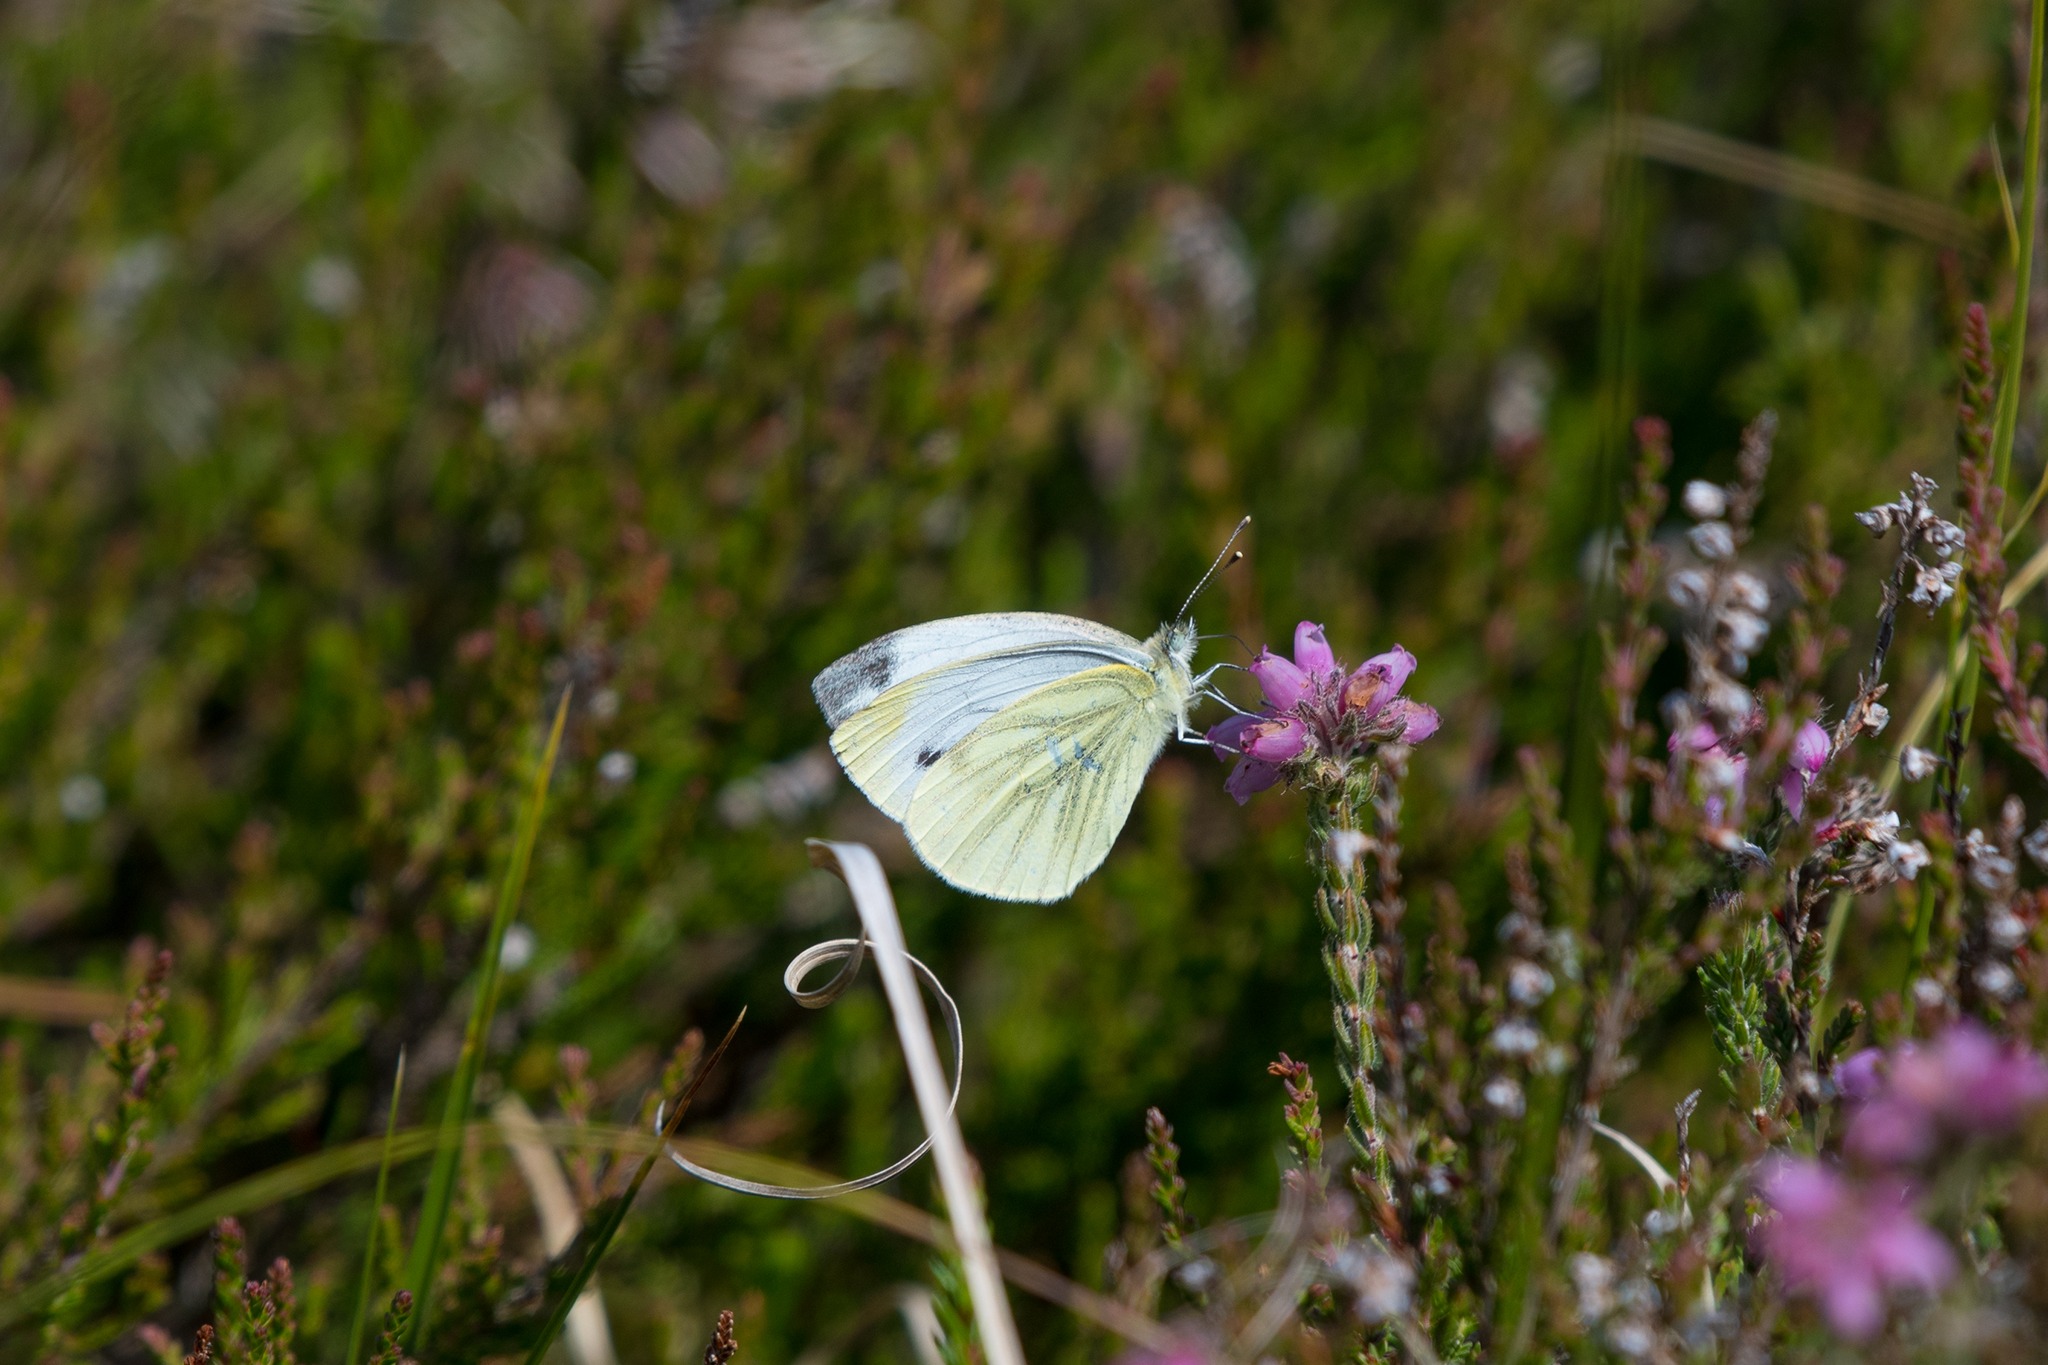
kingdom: Animalia
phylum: Arthropoda
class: Insecta
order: Lepidoptera
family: Pieridae
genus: Pieris
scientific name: Pieris napi
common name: Grønåret kålsommerfugl
